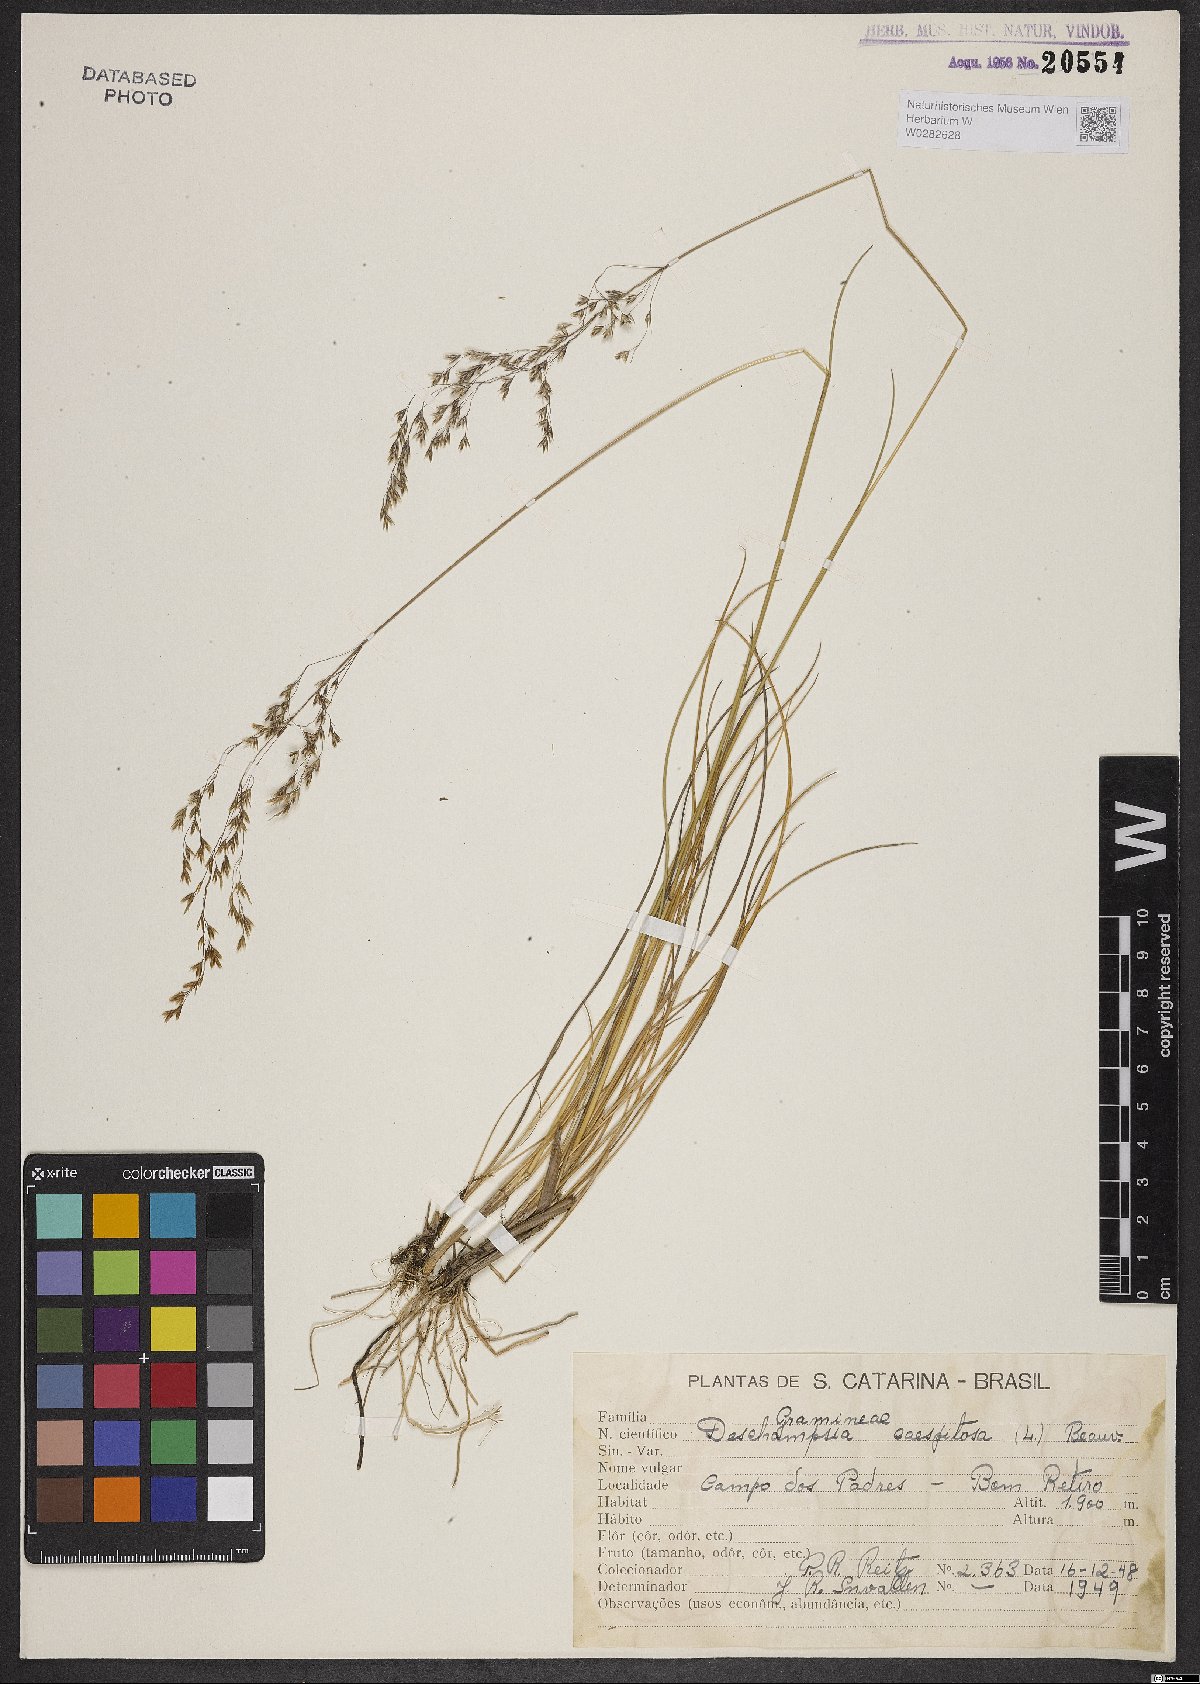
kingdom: Plantae
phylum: Tracheophyta
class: Liliopsida
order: Poales
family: Poaceae
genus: Deschampsia
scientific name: Deschampsia cespitosa
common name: Tufted hair-grass
